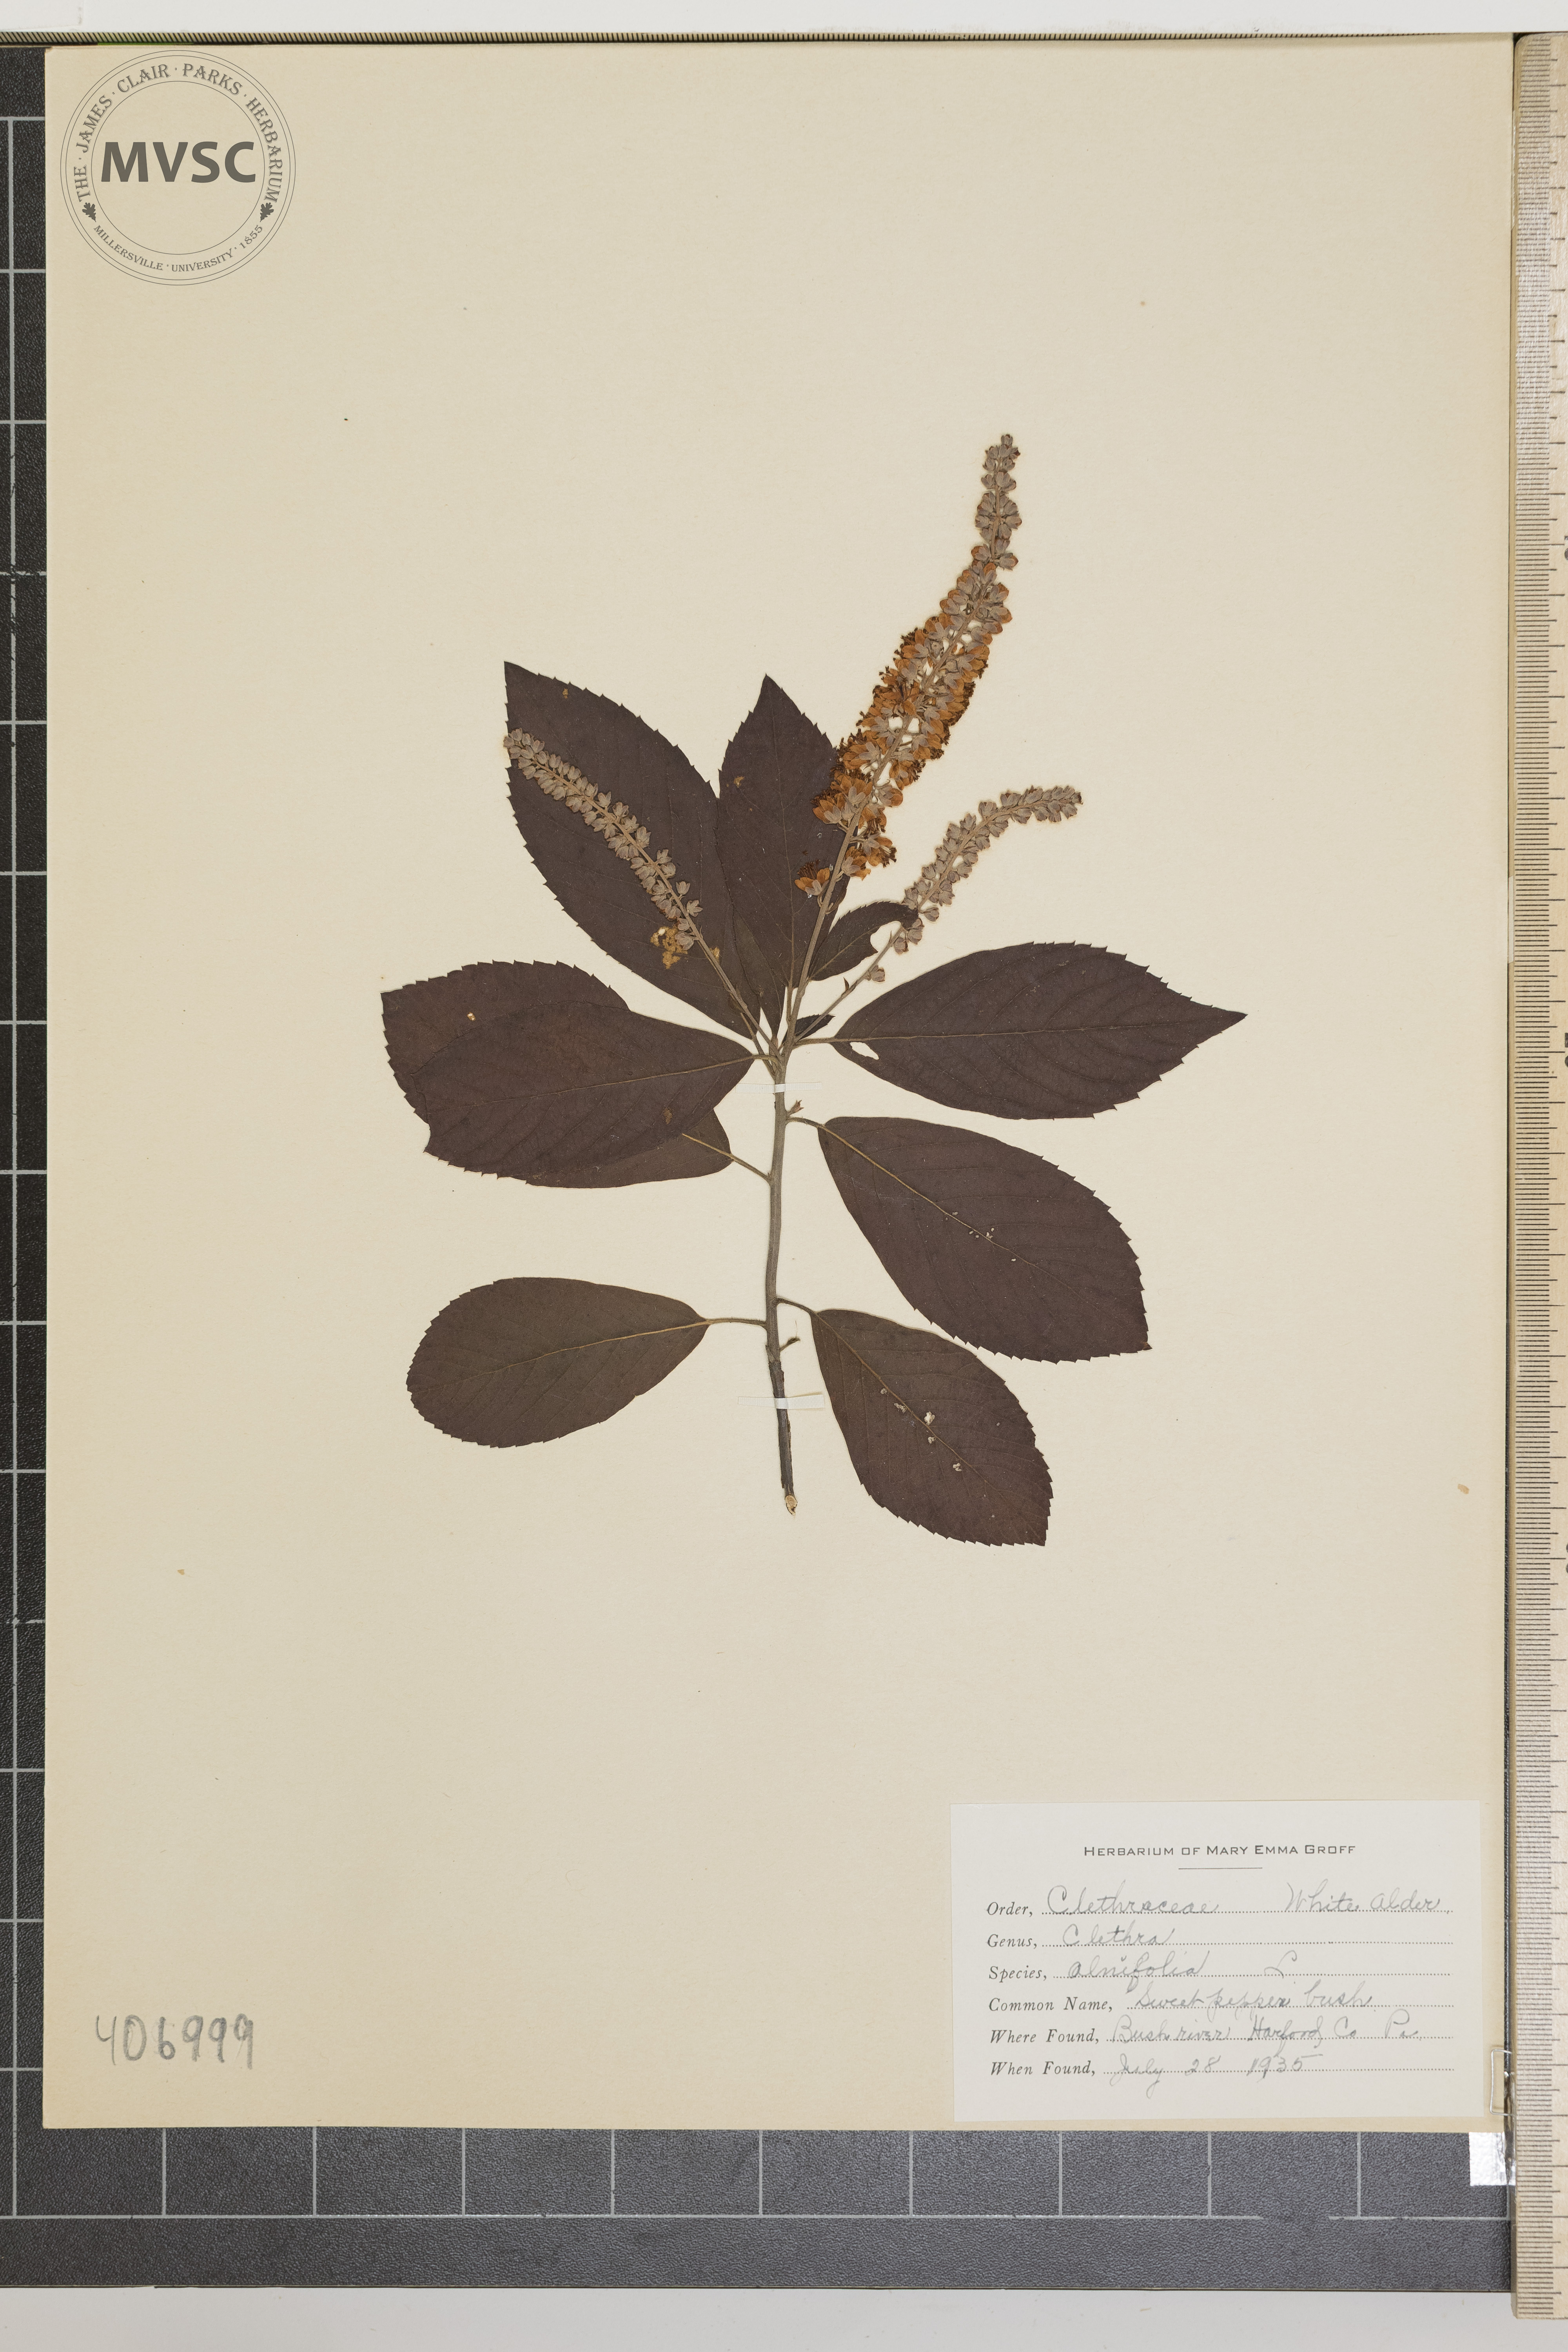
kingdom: Plantae
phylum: Tracheophyta
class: Magnoliopsida
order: Ericales
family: Clethraceae
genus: Clethra
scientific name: Clethra alnifolia
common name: Sweet Pepper bush
